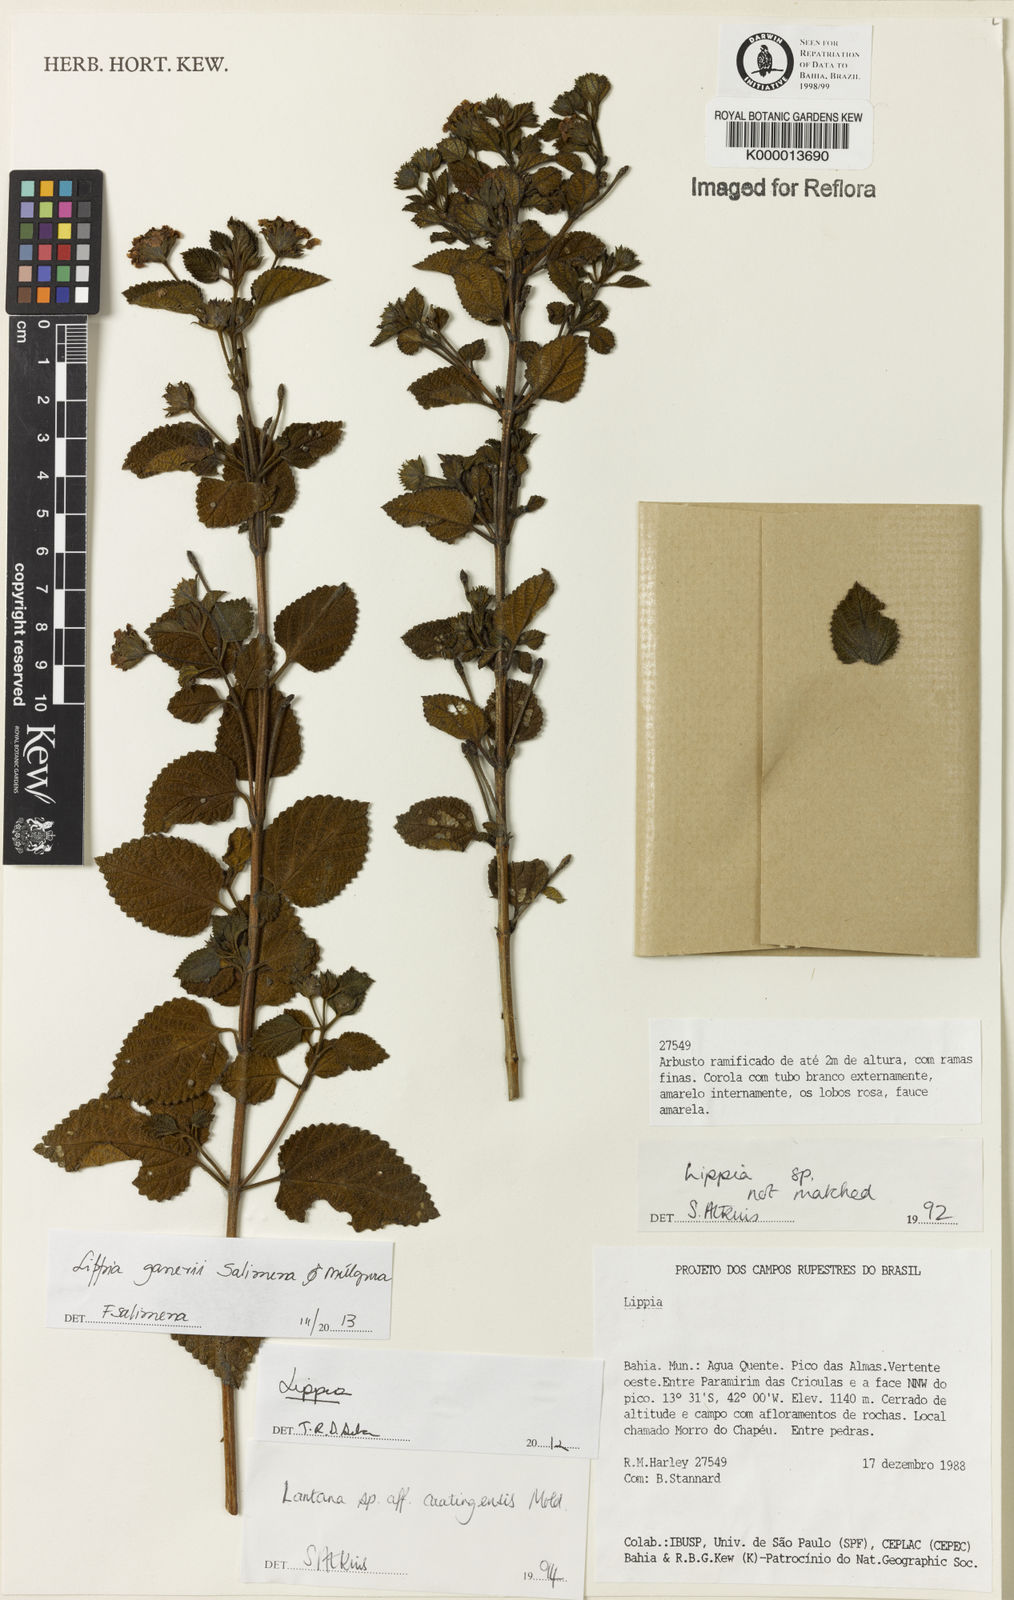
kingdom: Plantae
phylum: Tracheophyta
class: Magnoliopsida
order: Lamiales
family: Verbenaceae
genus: Lippia
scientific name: Lippia
